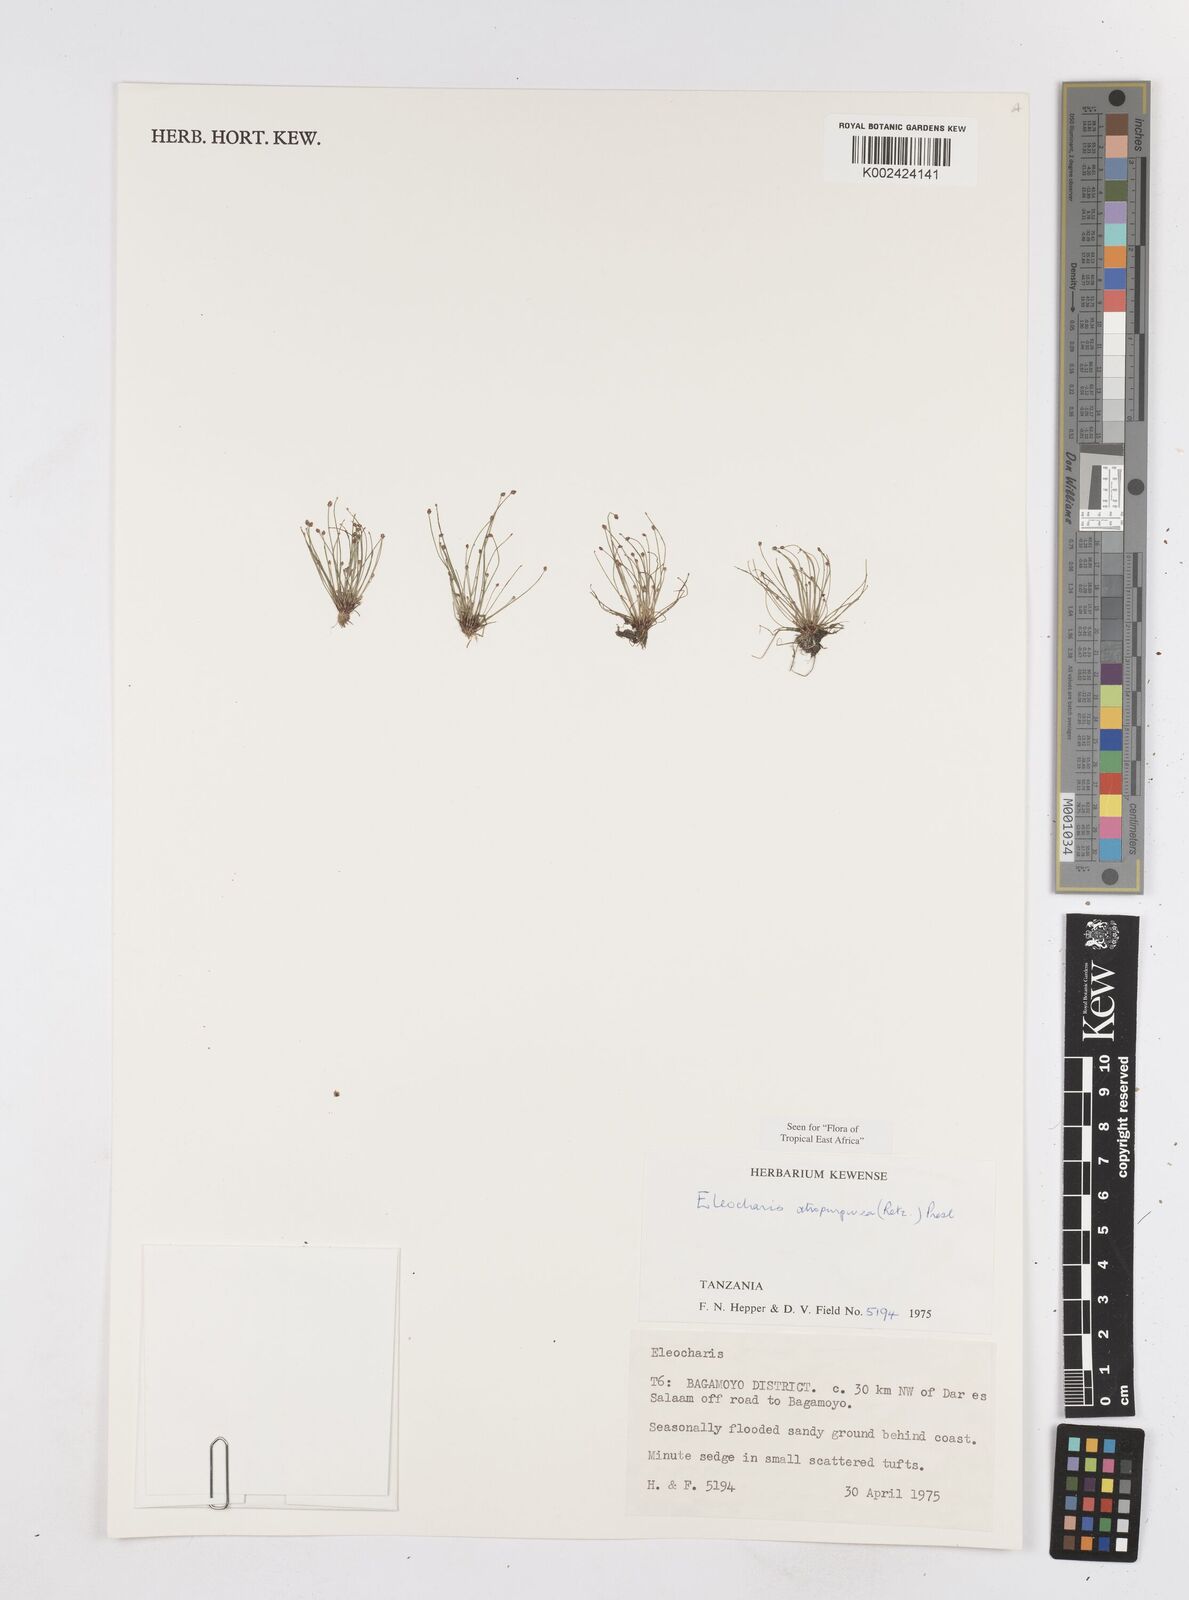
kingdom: Plantae
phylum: Tracheophyta
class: Liliopsida
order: Poales
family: Cyperaceae
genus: Eleocharis
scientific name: Eleocharis atropurpurea
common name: Purple spikerush
